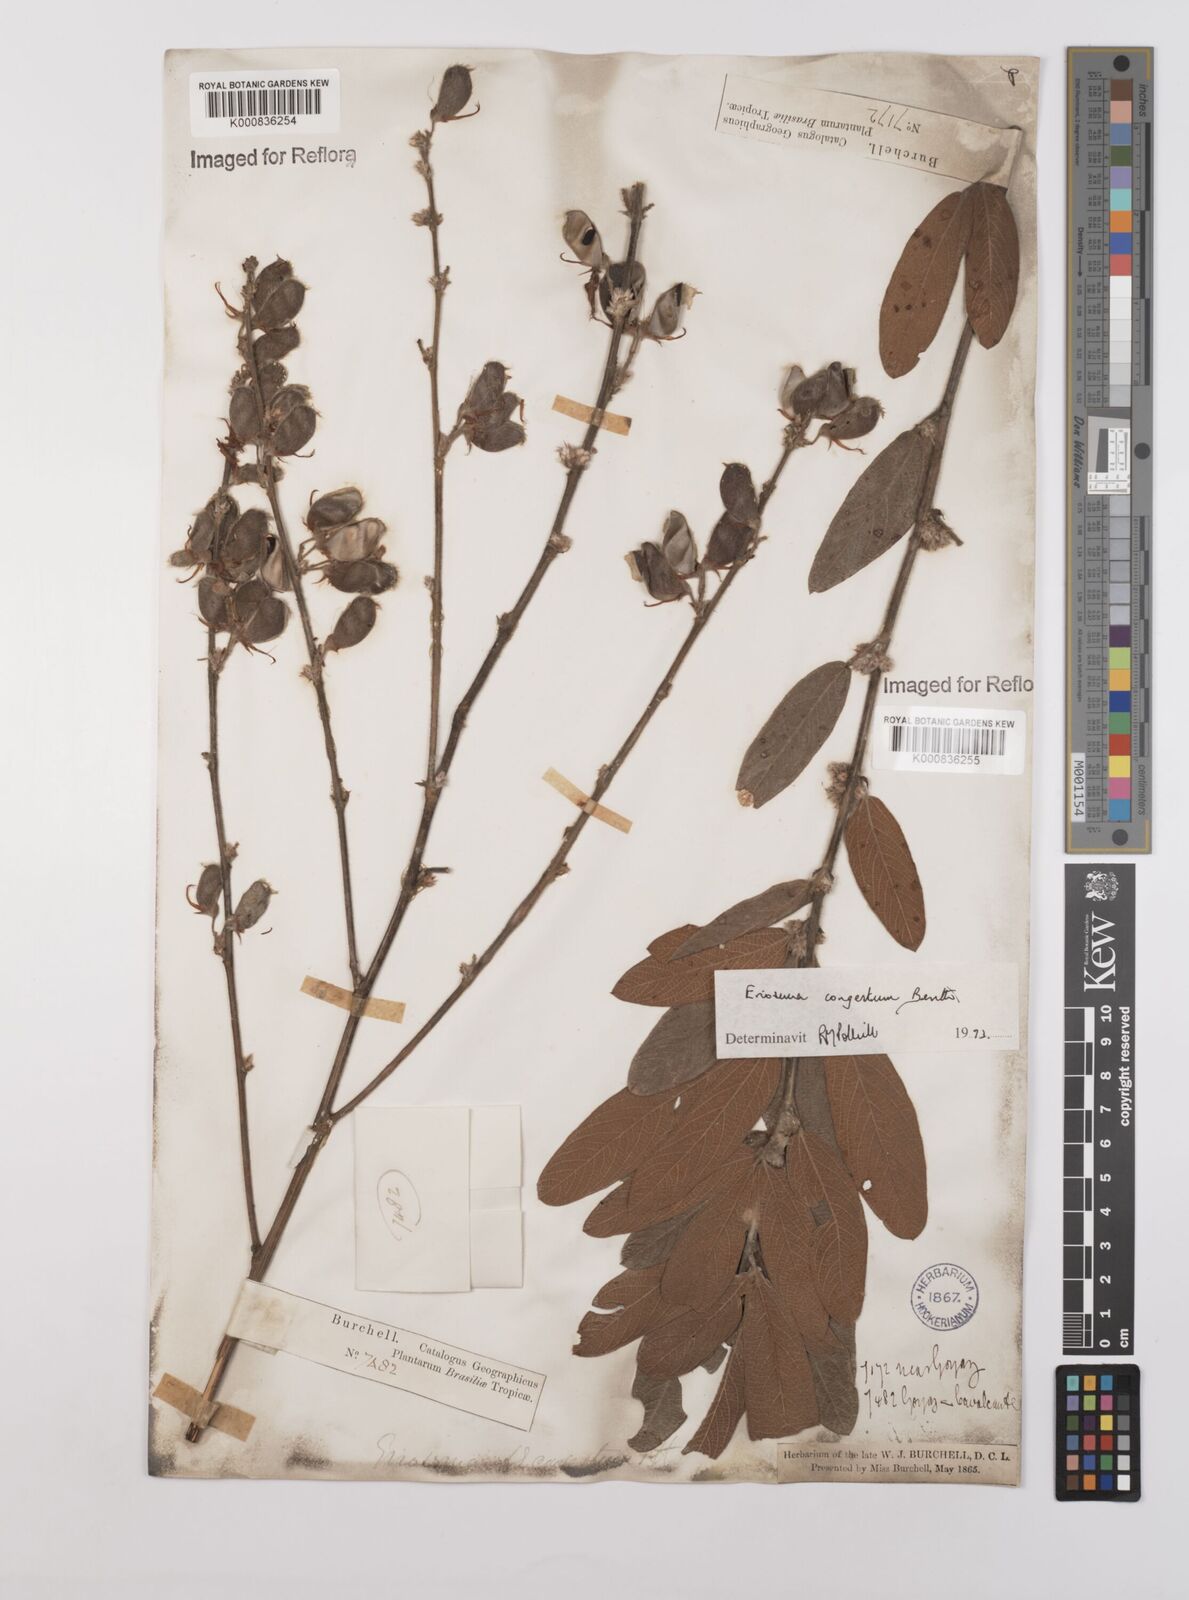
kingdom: Plantae
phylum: Tracheophyta
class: Magnoliopsida
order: Fabales
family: Fabaceae
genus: Eriosema
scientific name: Eriosema congestum
